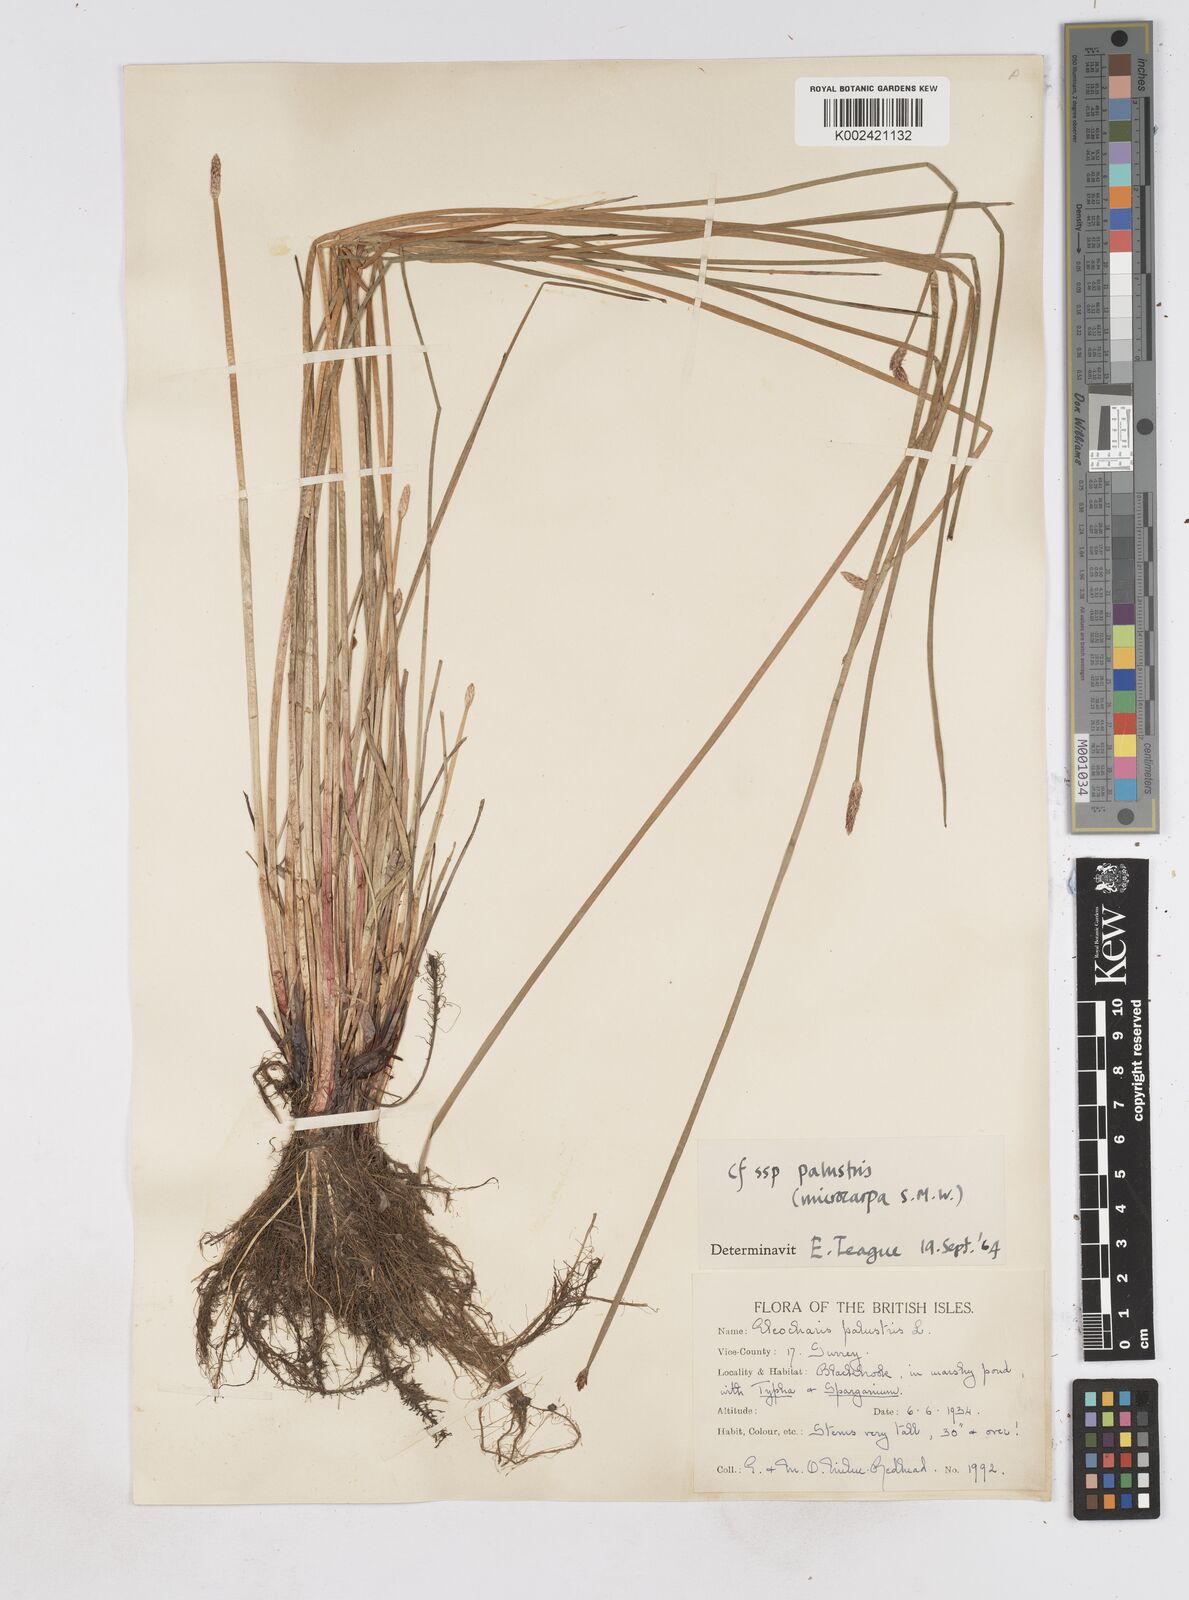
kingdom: Plantae
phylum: Tracheophyta
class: Liliopsida
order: Poales
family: Cyperaceae
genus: Eleocharis
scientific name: Eleocharis palustris
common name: Common spike-rush
